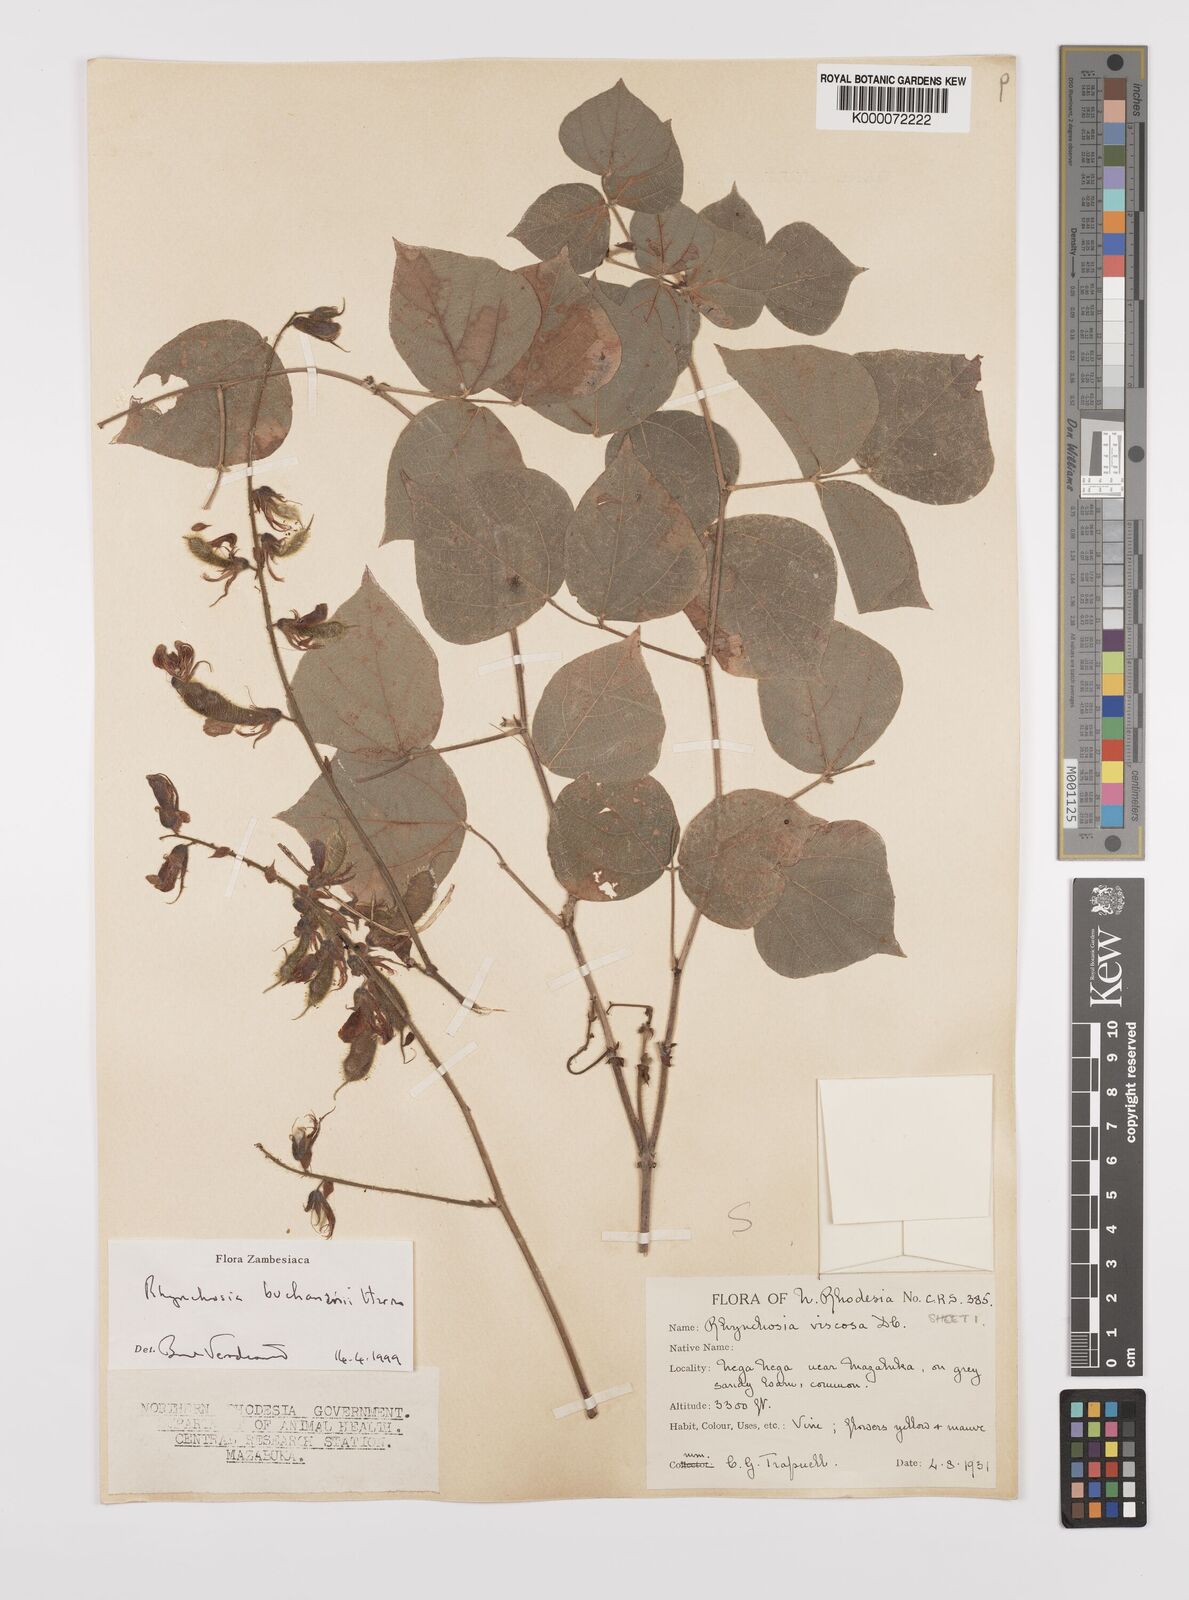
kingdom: Plantae
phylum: Tracheophyta
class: Magnoliopsida
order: Fabales
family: Fabaceae
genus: Rhynchosia
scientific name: Rhynchosia buchananii
